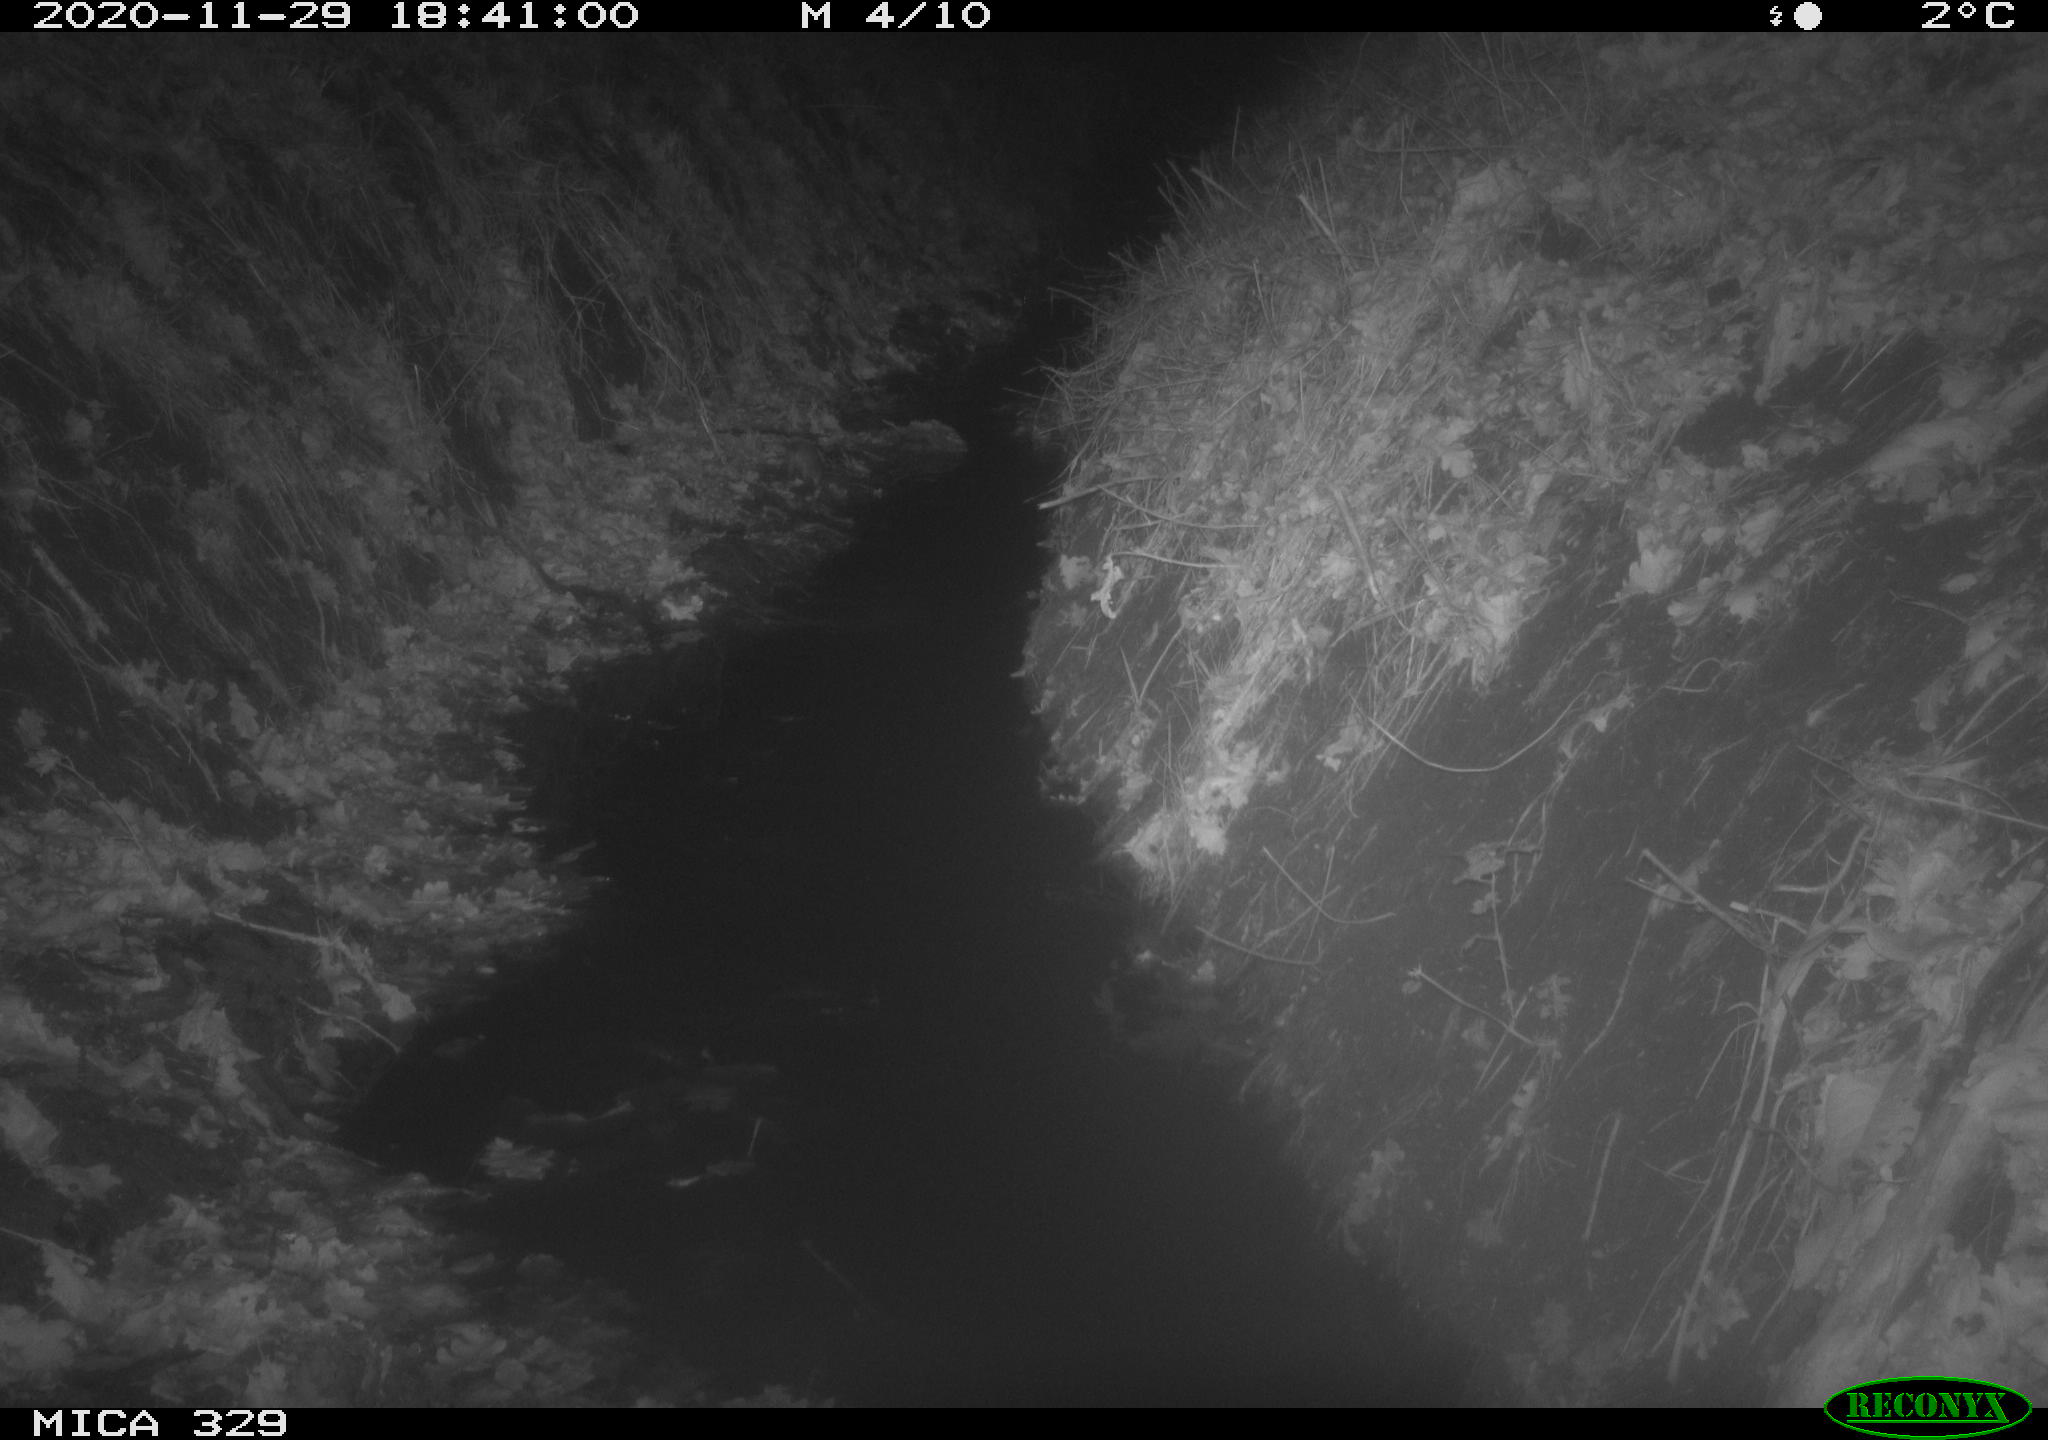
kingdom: Animalia
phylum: Chordata
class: Mammalia
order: Rodentia
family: Muridae
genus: Rattus
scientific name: Rattus norvegicus
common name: Brown rat
